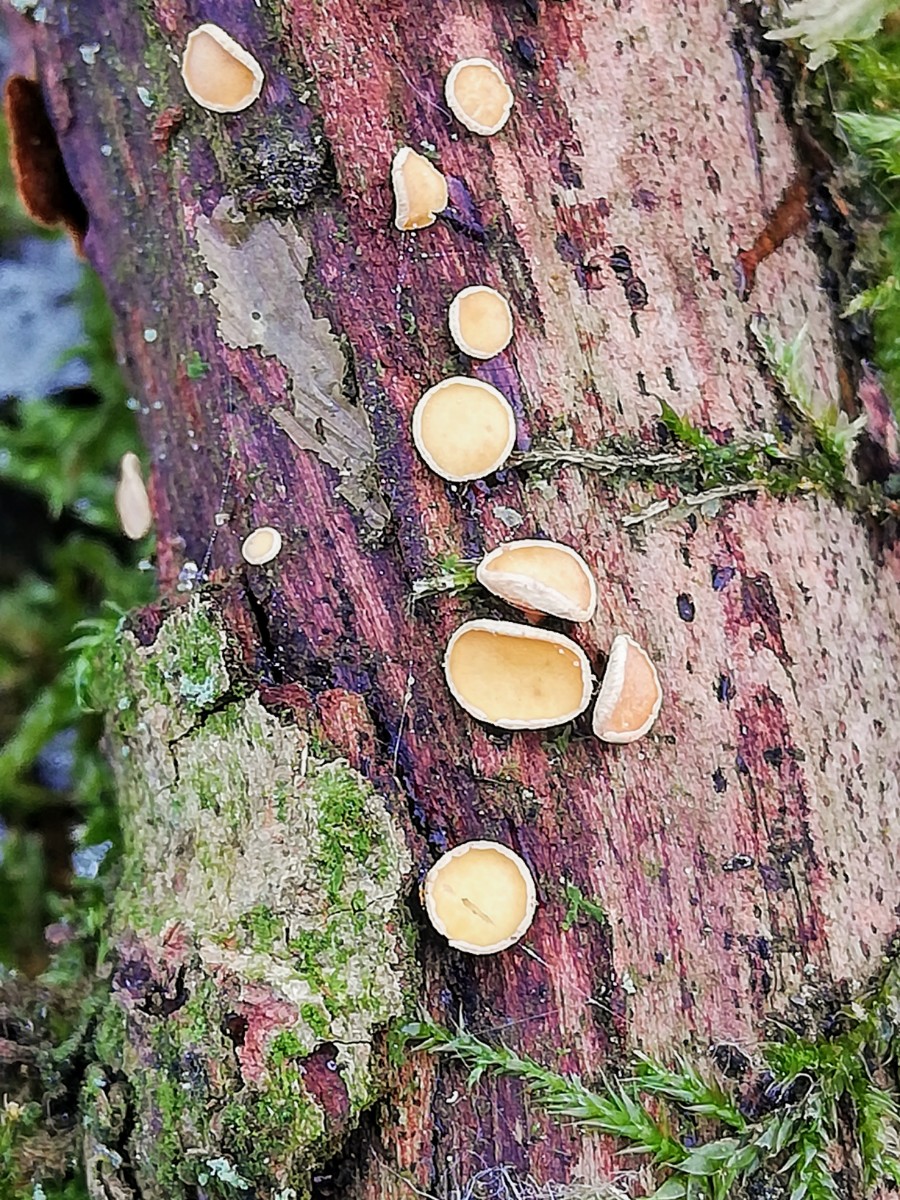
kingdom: Fungi
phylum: Ascomycota
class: Leotiomycetes
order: Helotiales
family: Helotiaceae
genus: Hymenoscyphus
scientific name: Hymenoscyphus
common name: stilkskive
